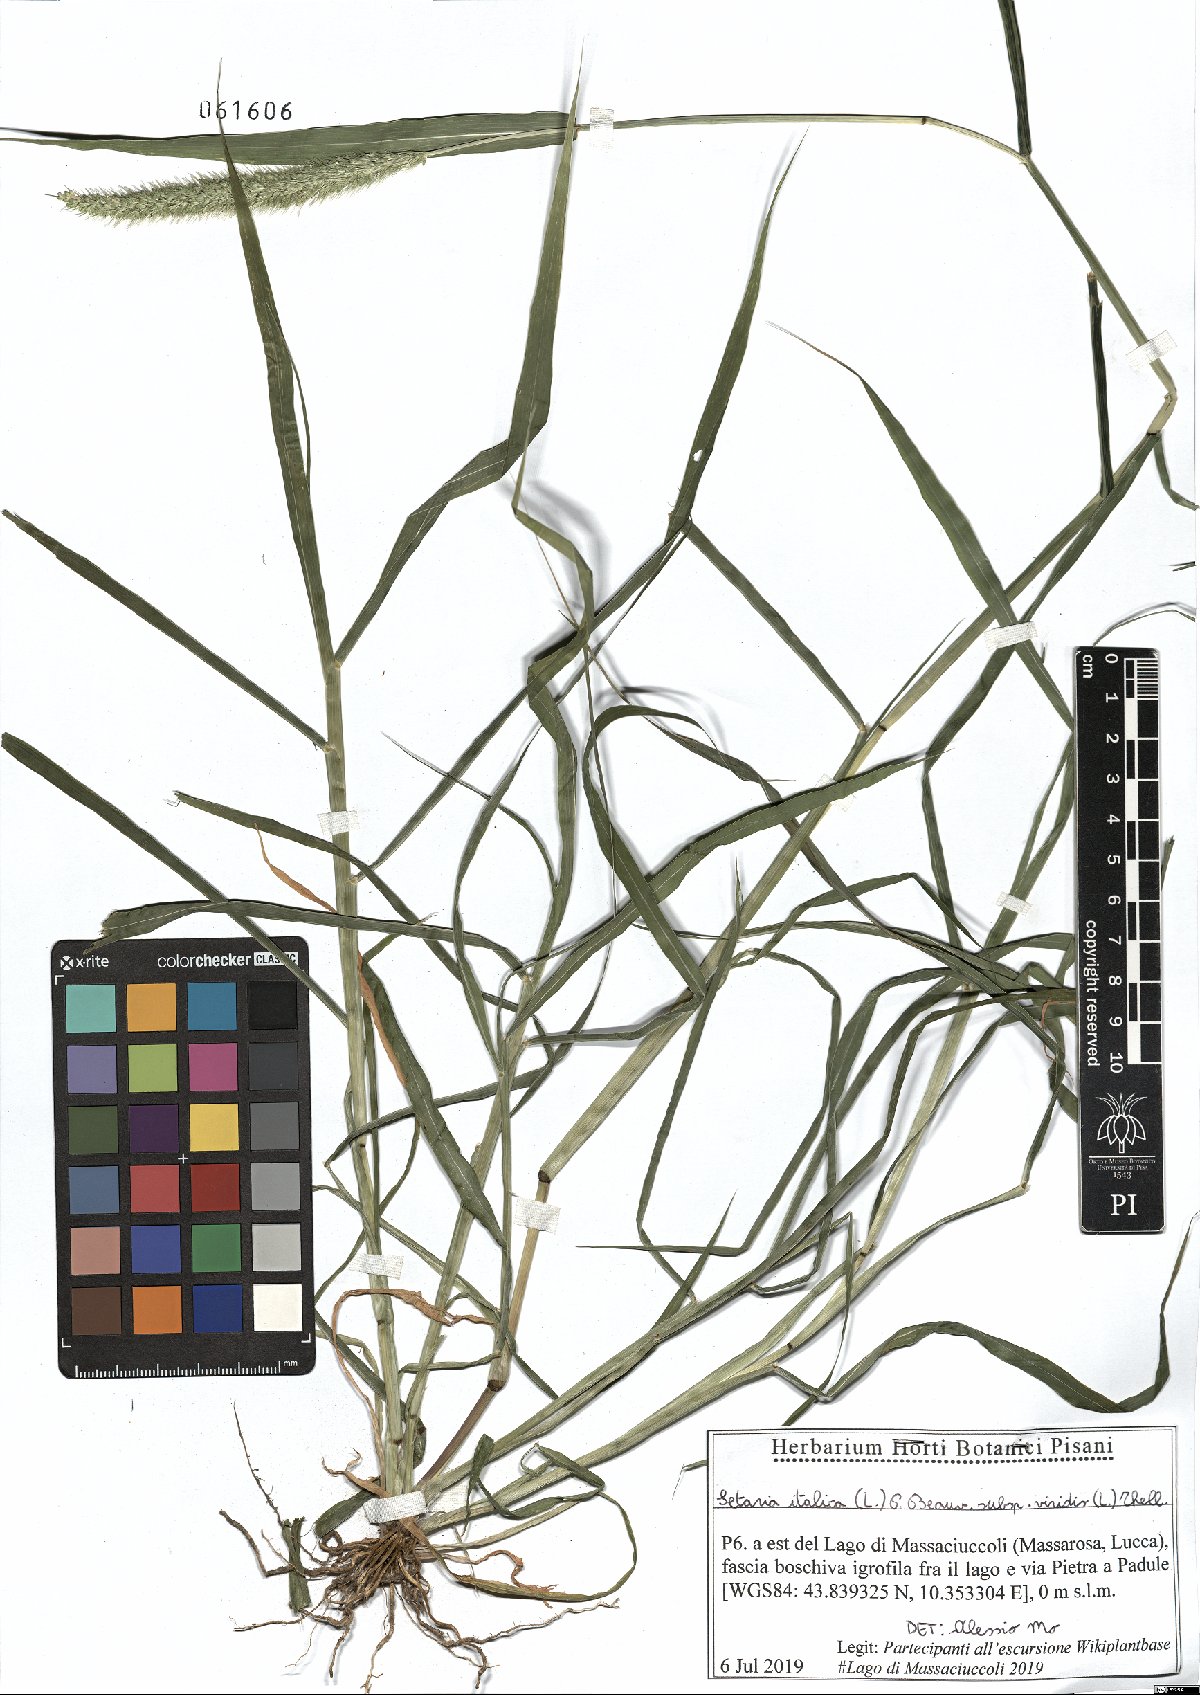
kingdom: Plantae
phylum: Tracheophyta
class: Liliopsida
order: Poales
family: Poaceae
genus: Setaria
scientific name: Setaria viridis
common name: Green bristlegrass
